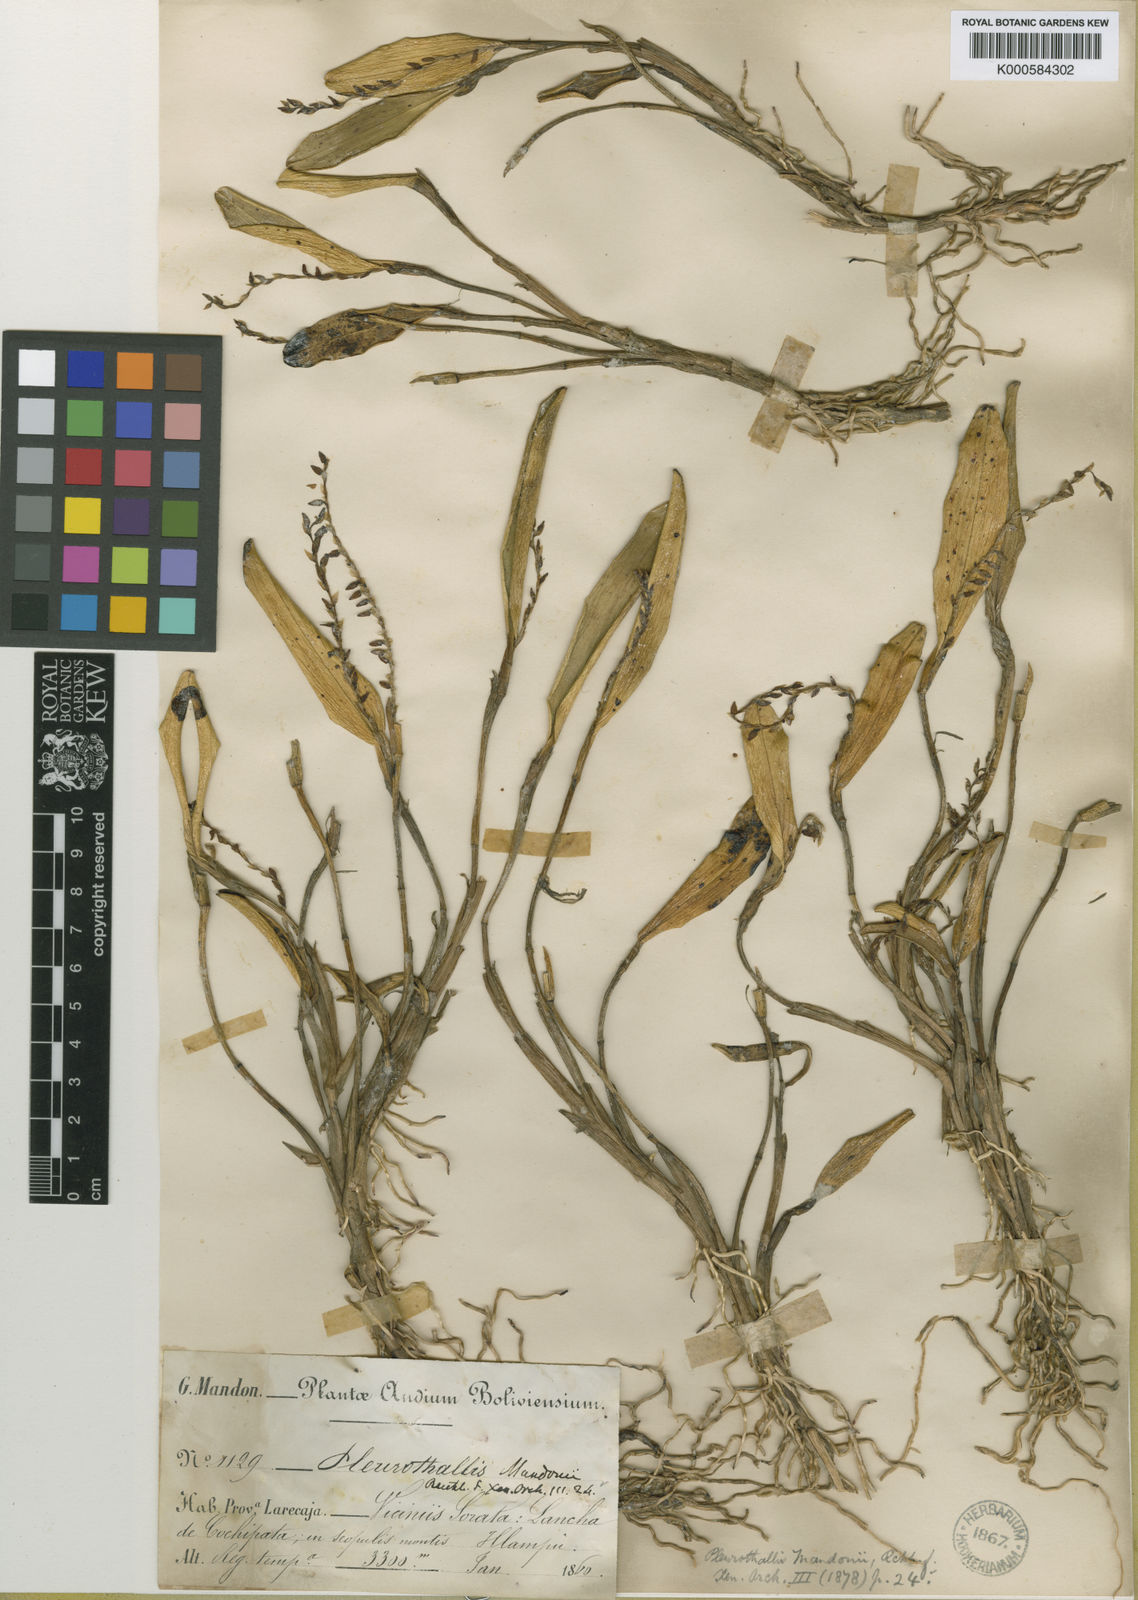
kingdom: Plantae
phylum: Tracheophyta
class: Liliopsida
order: Asparagales
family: Orchidaceae
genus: Stelis
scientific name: Stelis mandonii
